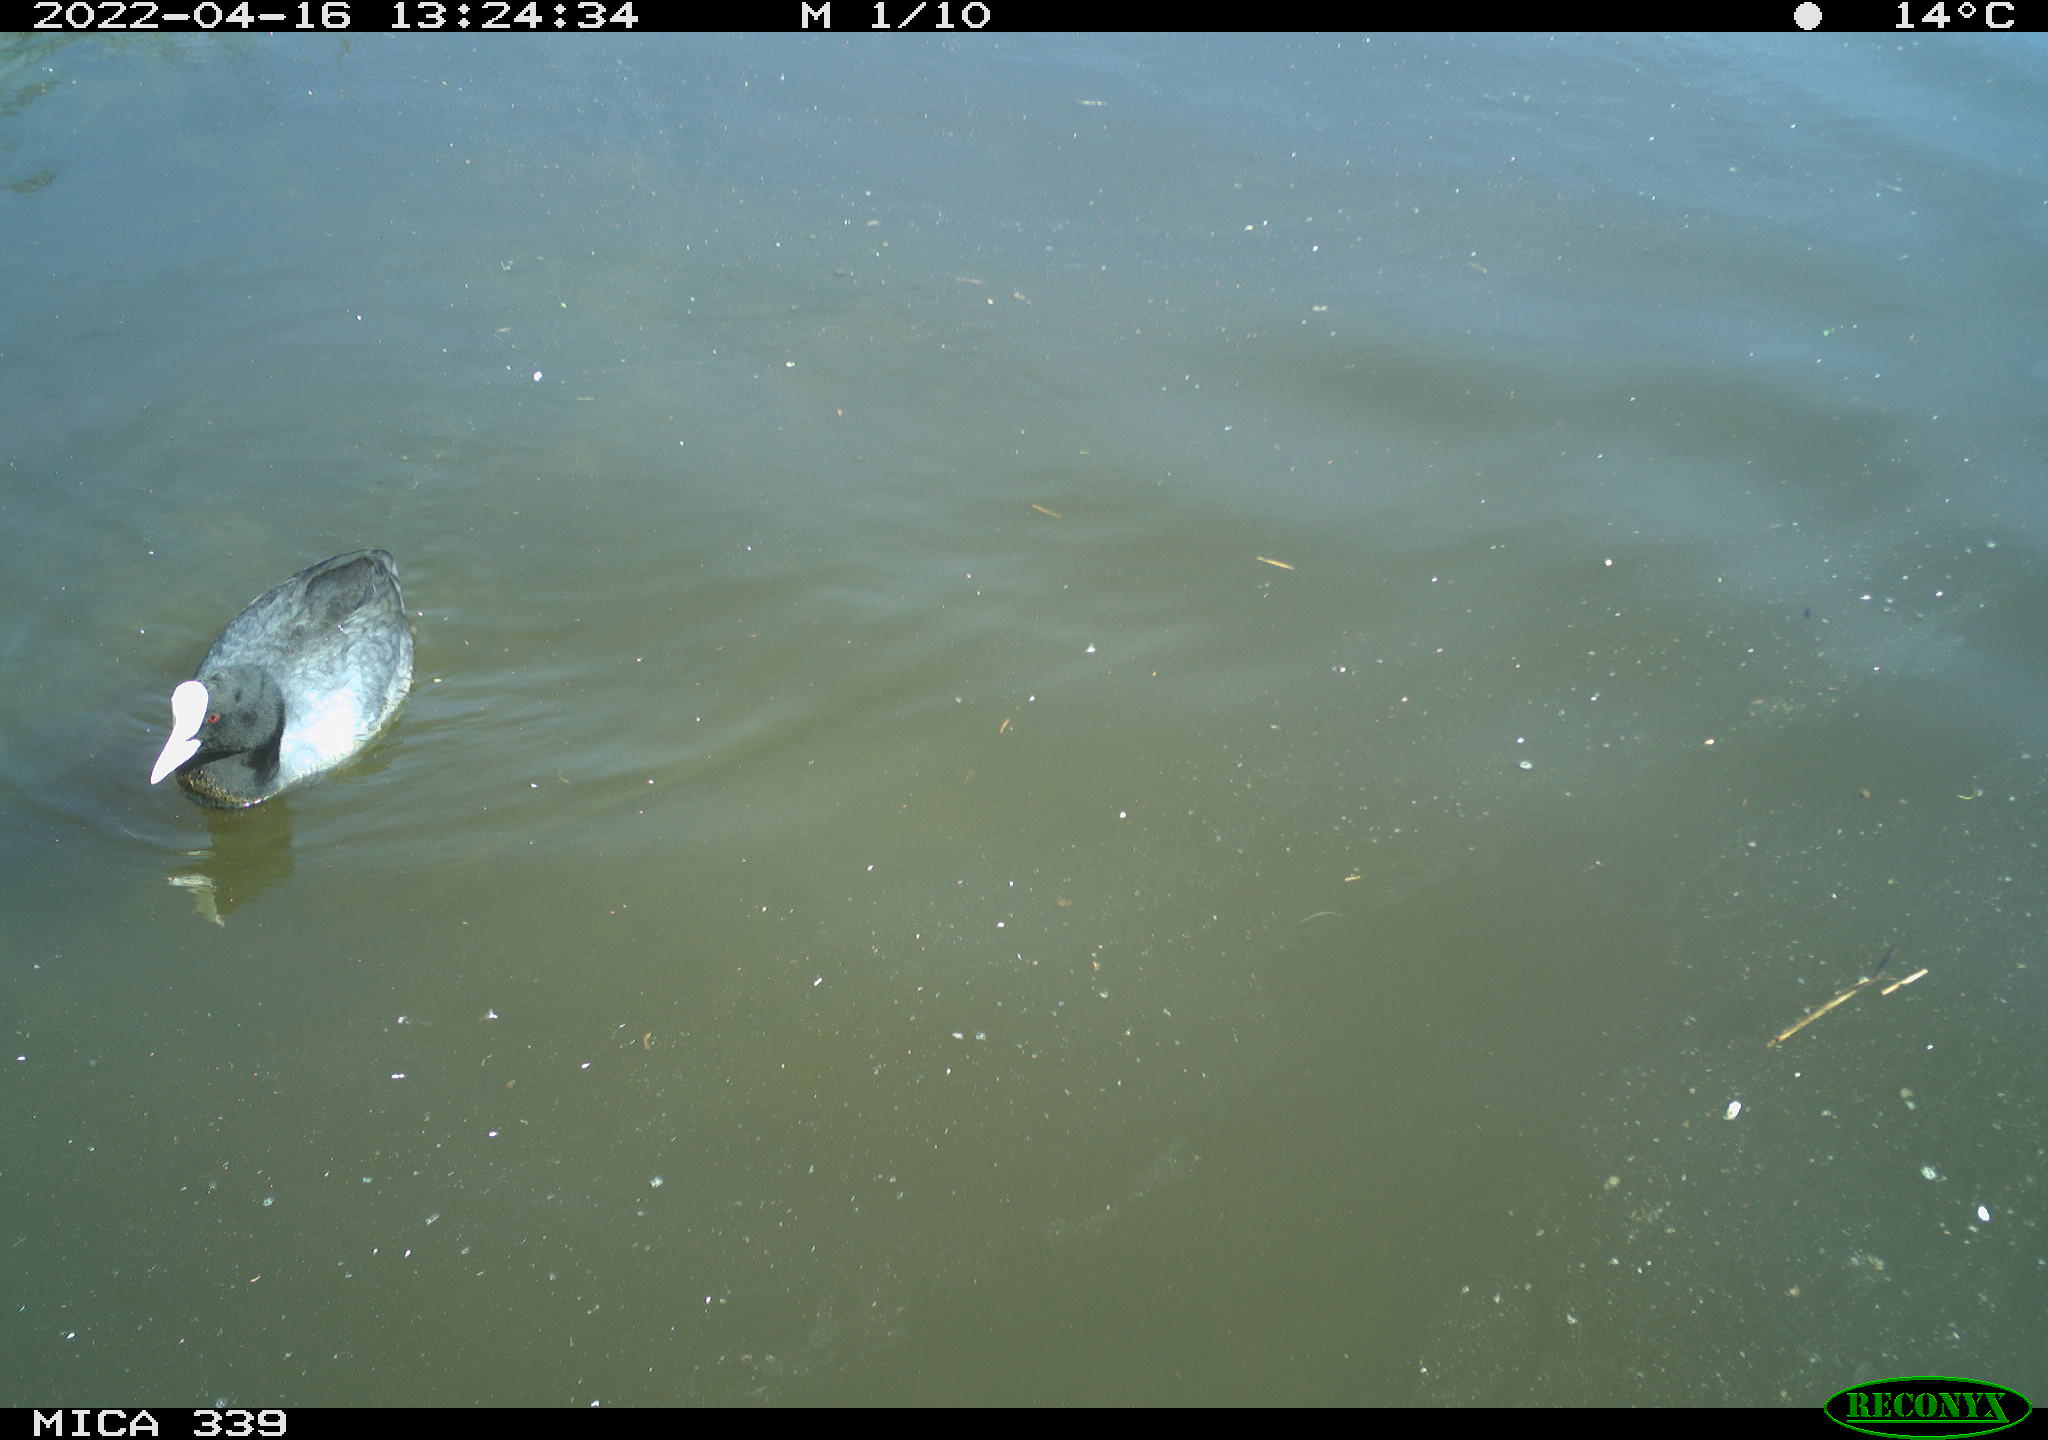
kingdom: Animalia
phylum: Chordata
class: Aves
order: Gruiformes
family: Rallidae
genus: Fulica
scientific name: Fulica atra
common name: Eurasian coot
